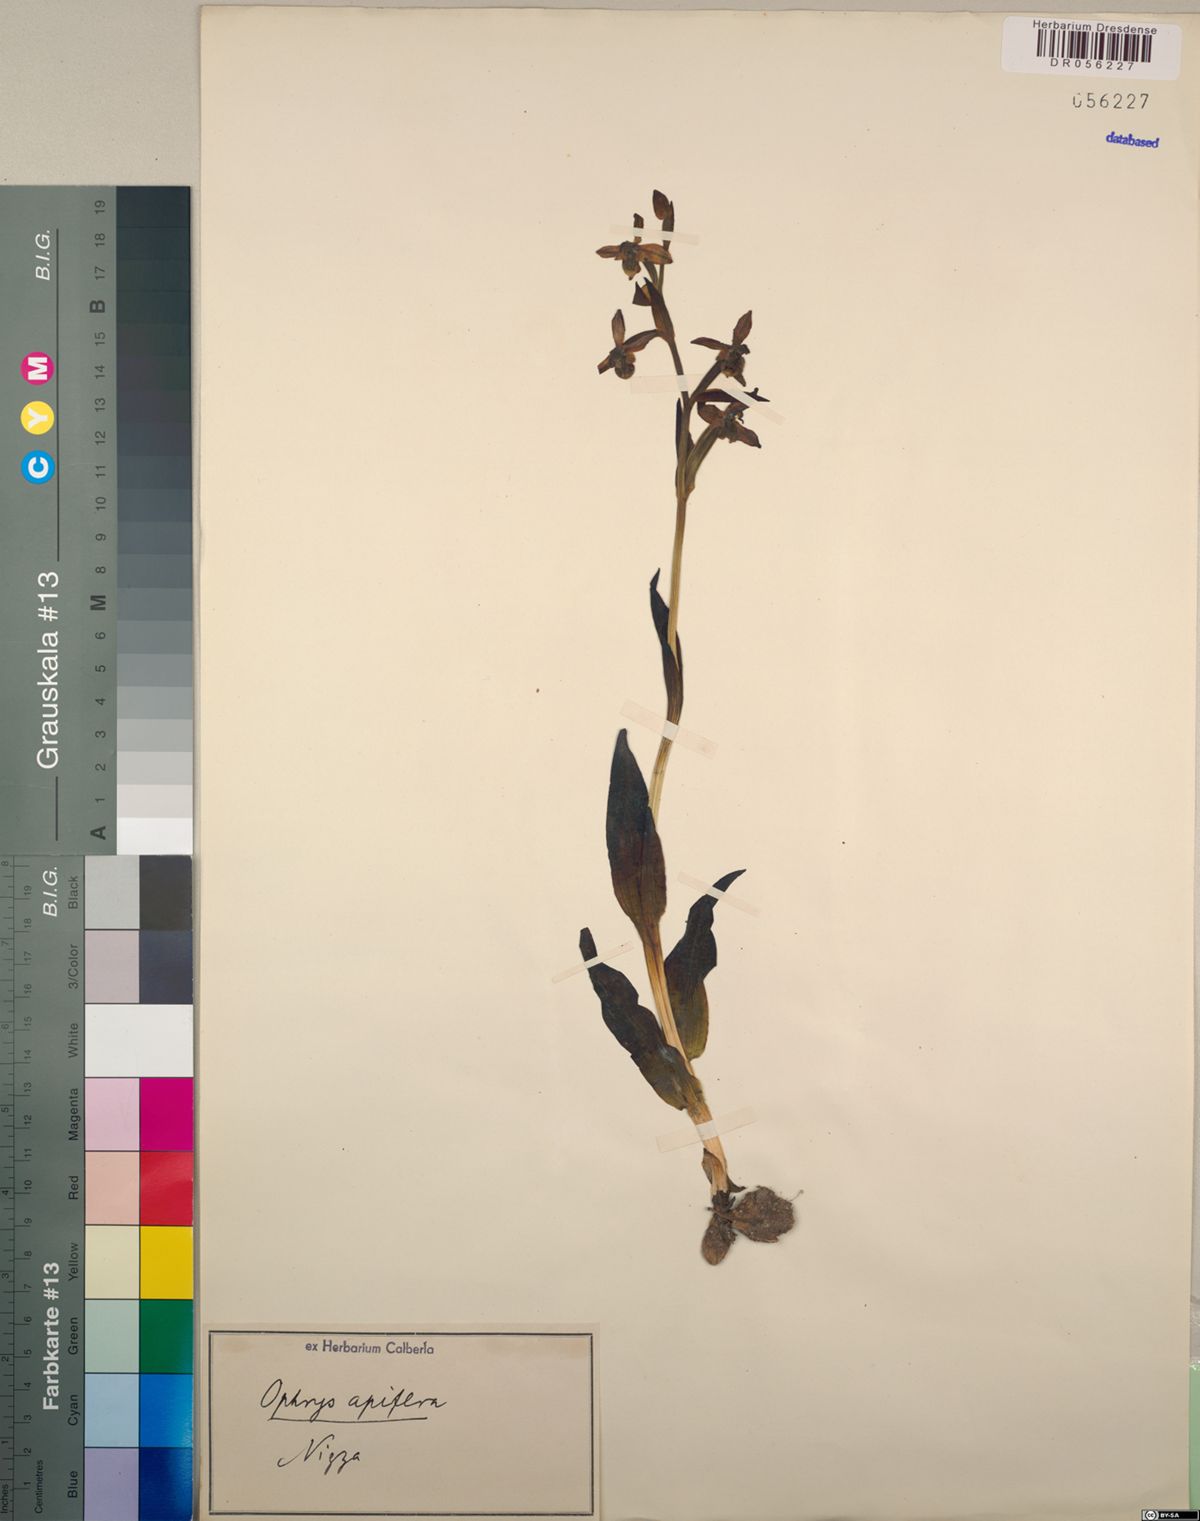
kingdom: Plantae
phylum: Tracheophyta
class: Liliopsida
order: Asparagales
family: Orchidaceae
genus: Ophrys
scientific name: Ophrys apifera
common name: Bee orchid
